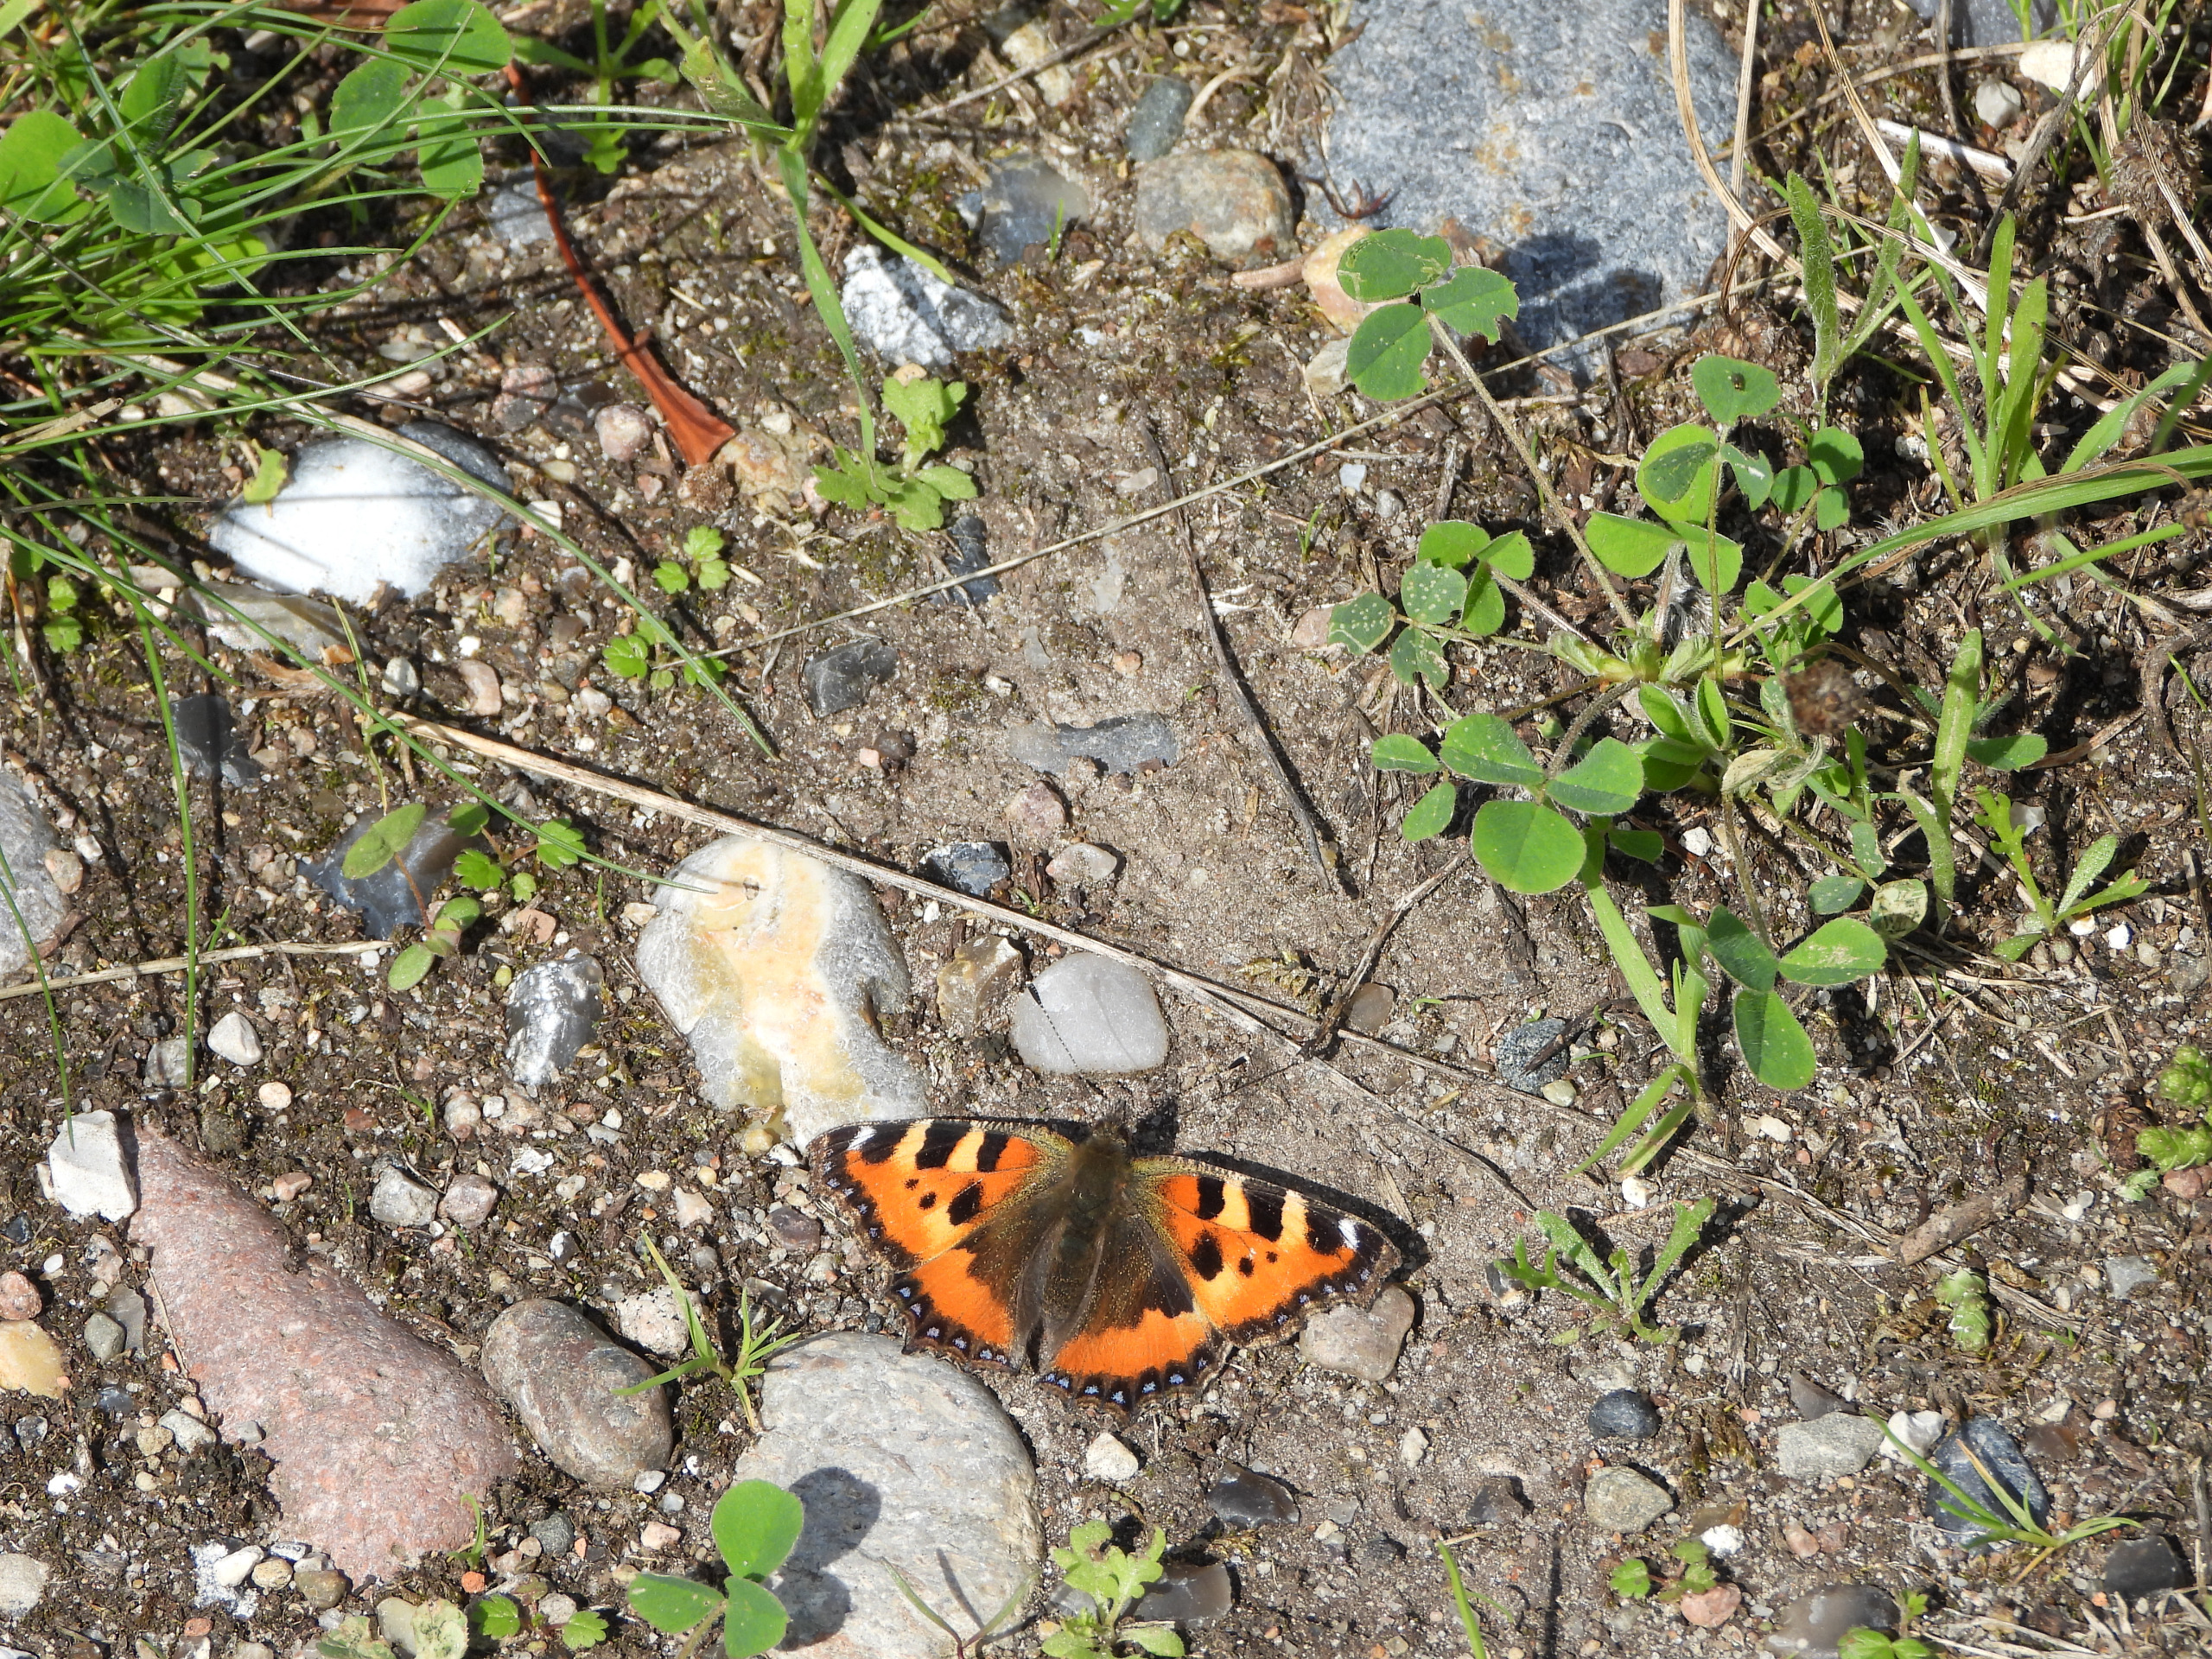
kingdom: Animalia
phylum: Arthropoda
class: Insecta
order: Lepidoptera
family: Nymphalidae
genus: Aglais
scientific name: Aglais urticae
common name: Nældens takvinge
